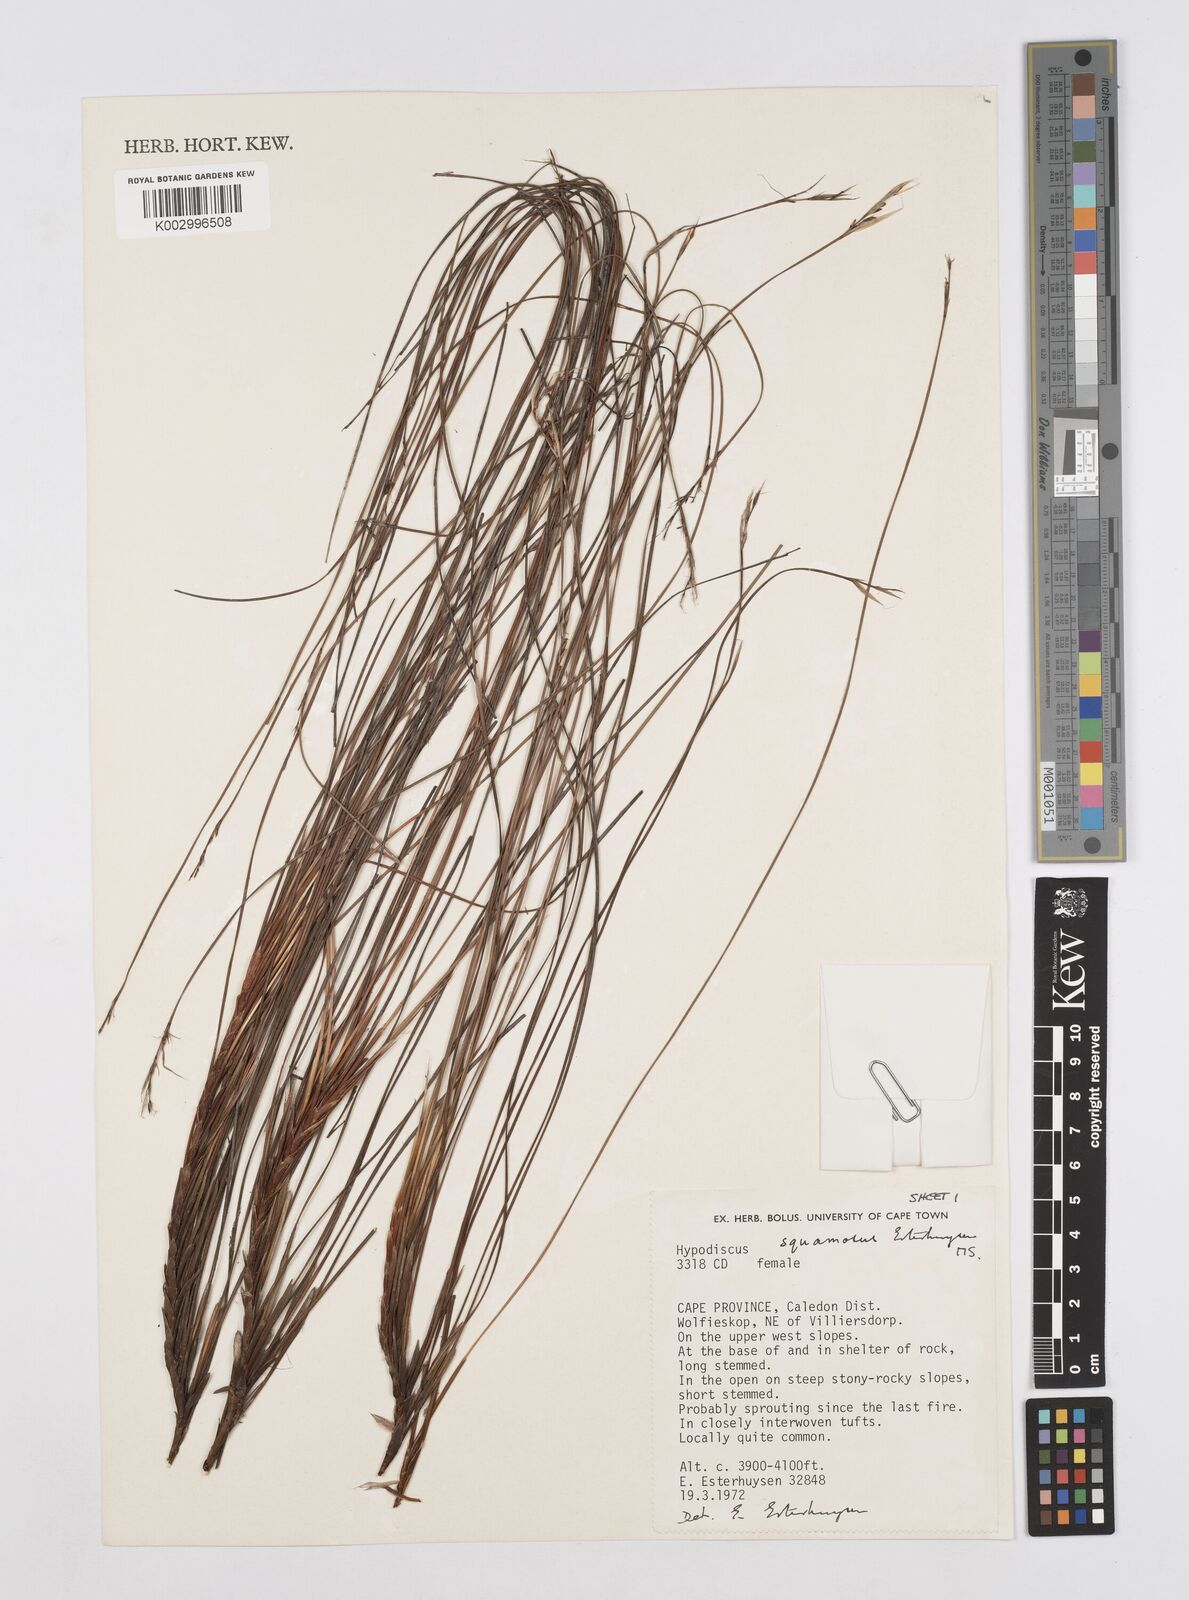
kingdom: Plantae
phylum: Tracheophyta
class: Liliopsida
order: Poales
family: Restionaceae
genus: Hypodiscus
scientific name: Hypodiscus squamosus
